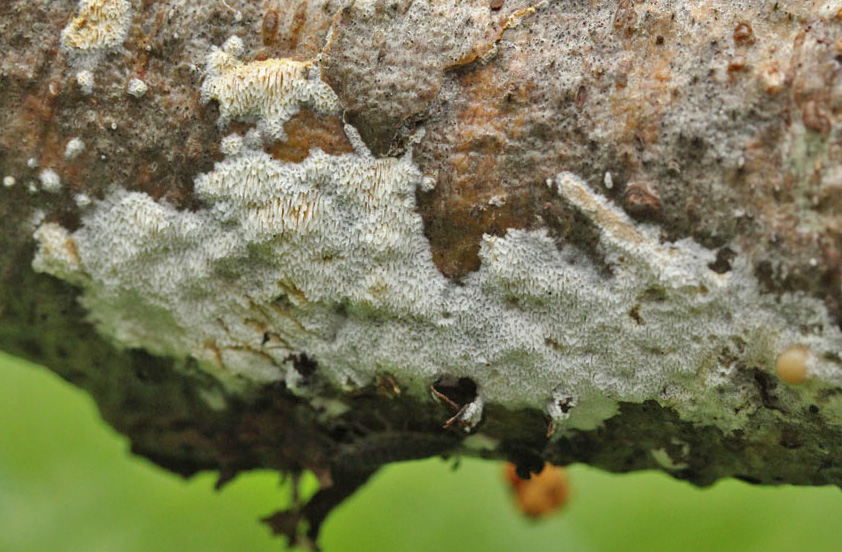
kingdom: Fungi
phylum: Basidiomycota
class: Agaricomycetes
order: Hymenochaetales
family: Schizoporaceae
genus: Xylodon
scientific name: Xylodon subtropicus
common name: labyrint-tandsvamp
